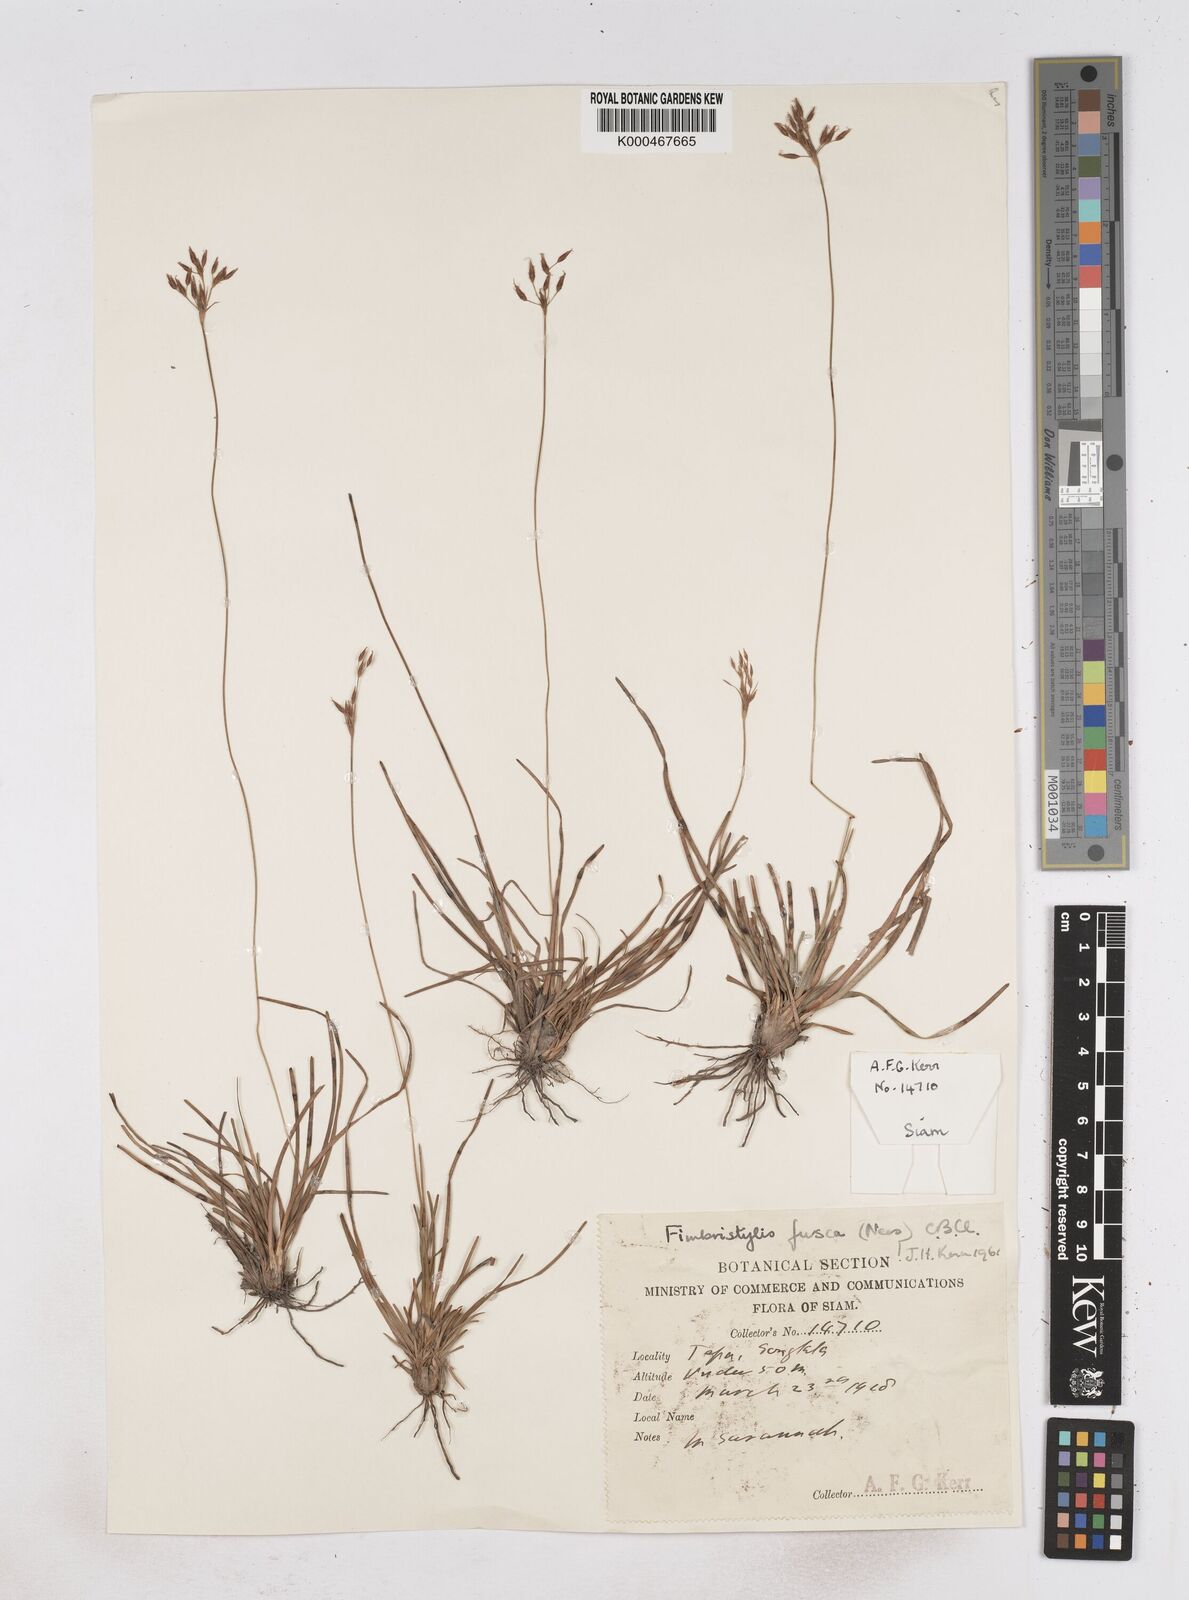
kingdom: Plantae
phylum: Tracheophyta
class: Liliopsida
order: Poales
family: Cyperaceae
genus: Fimbristylis
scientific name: Fimbristylis fusca
